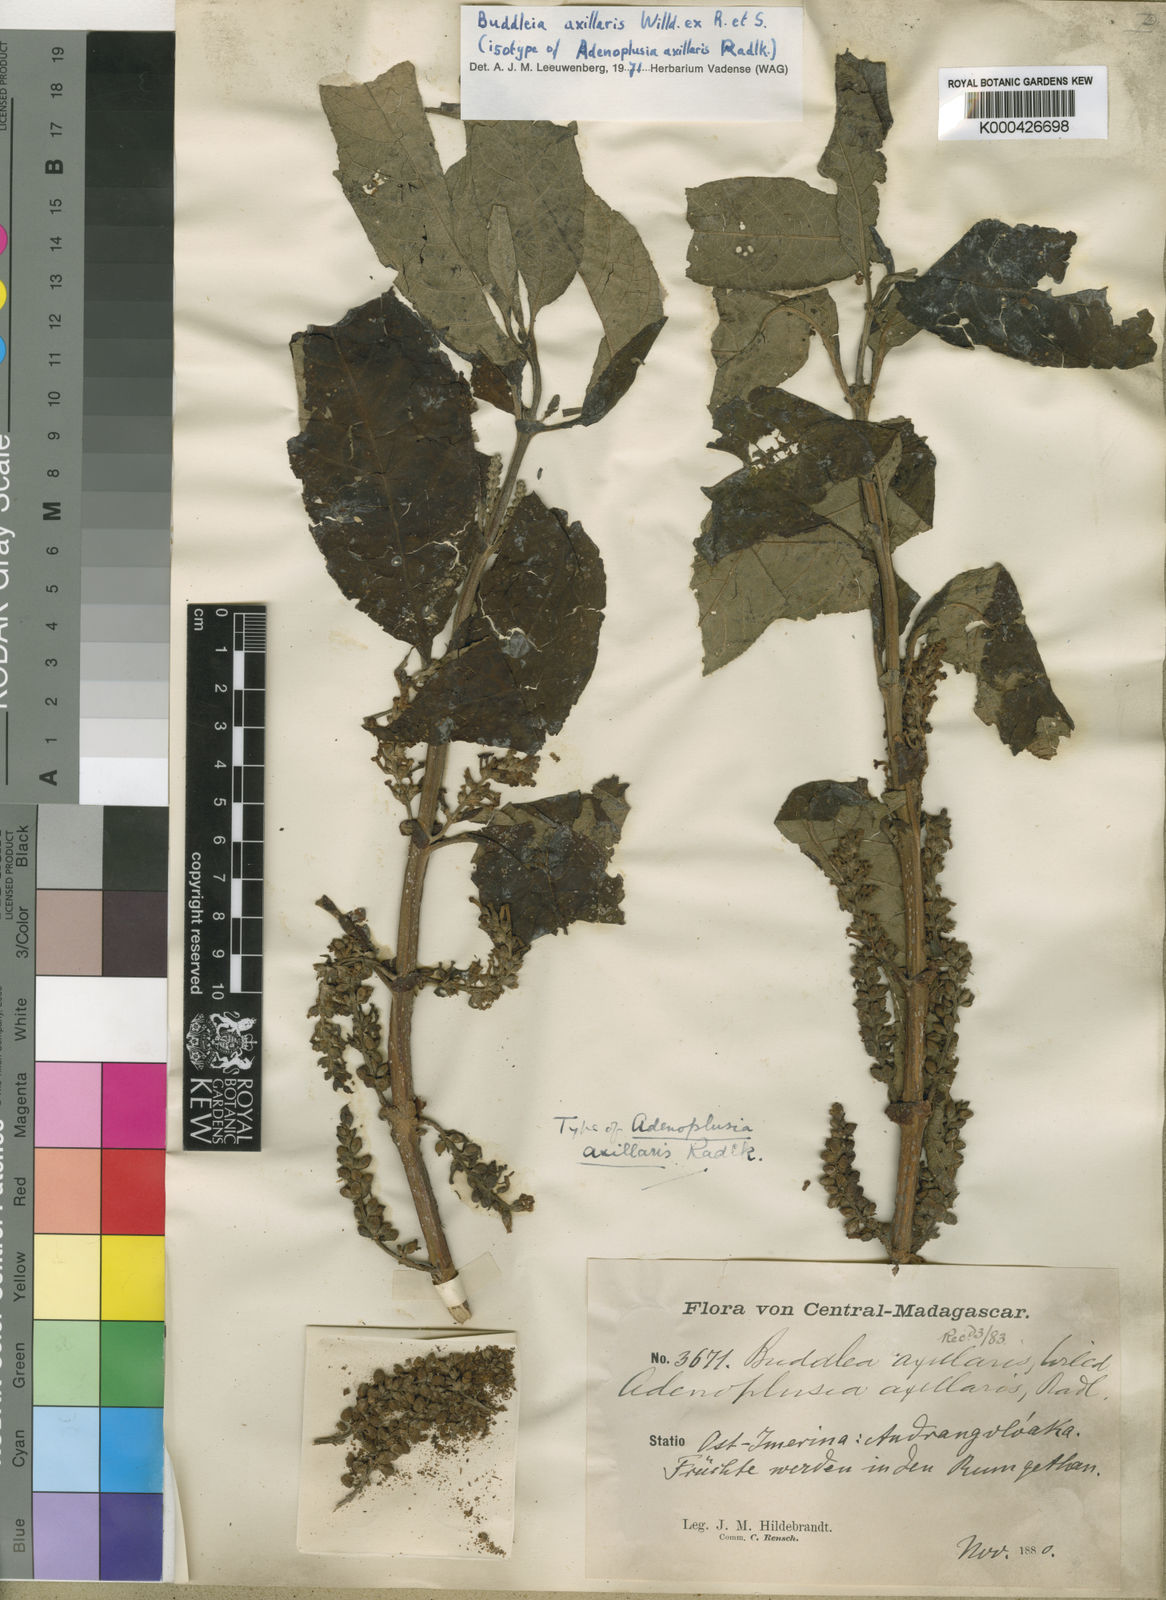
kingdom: Plantae
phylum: Tracheophyta
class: Magnoliopsida
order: Lamiales
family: Scrophulariaceae
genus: Buddleja
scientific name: Buddleja axillaris
